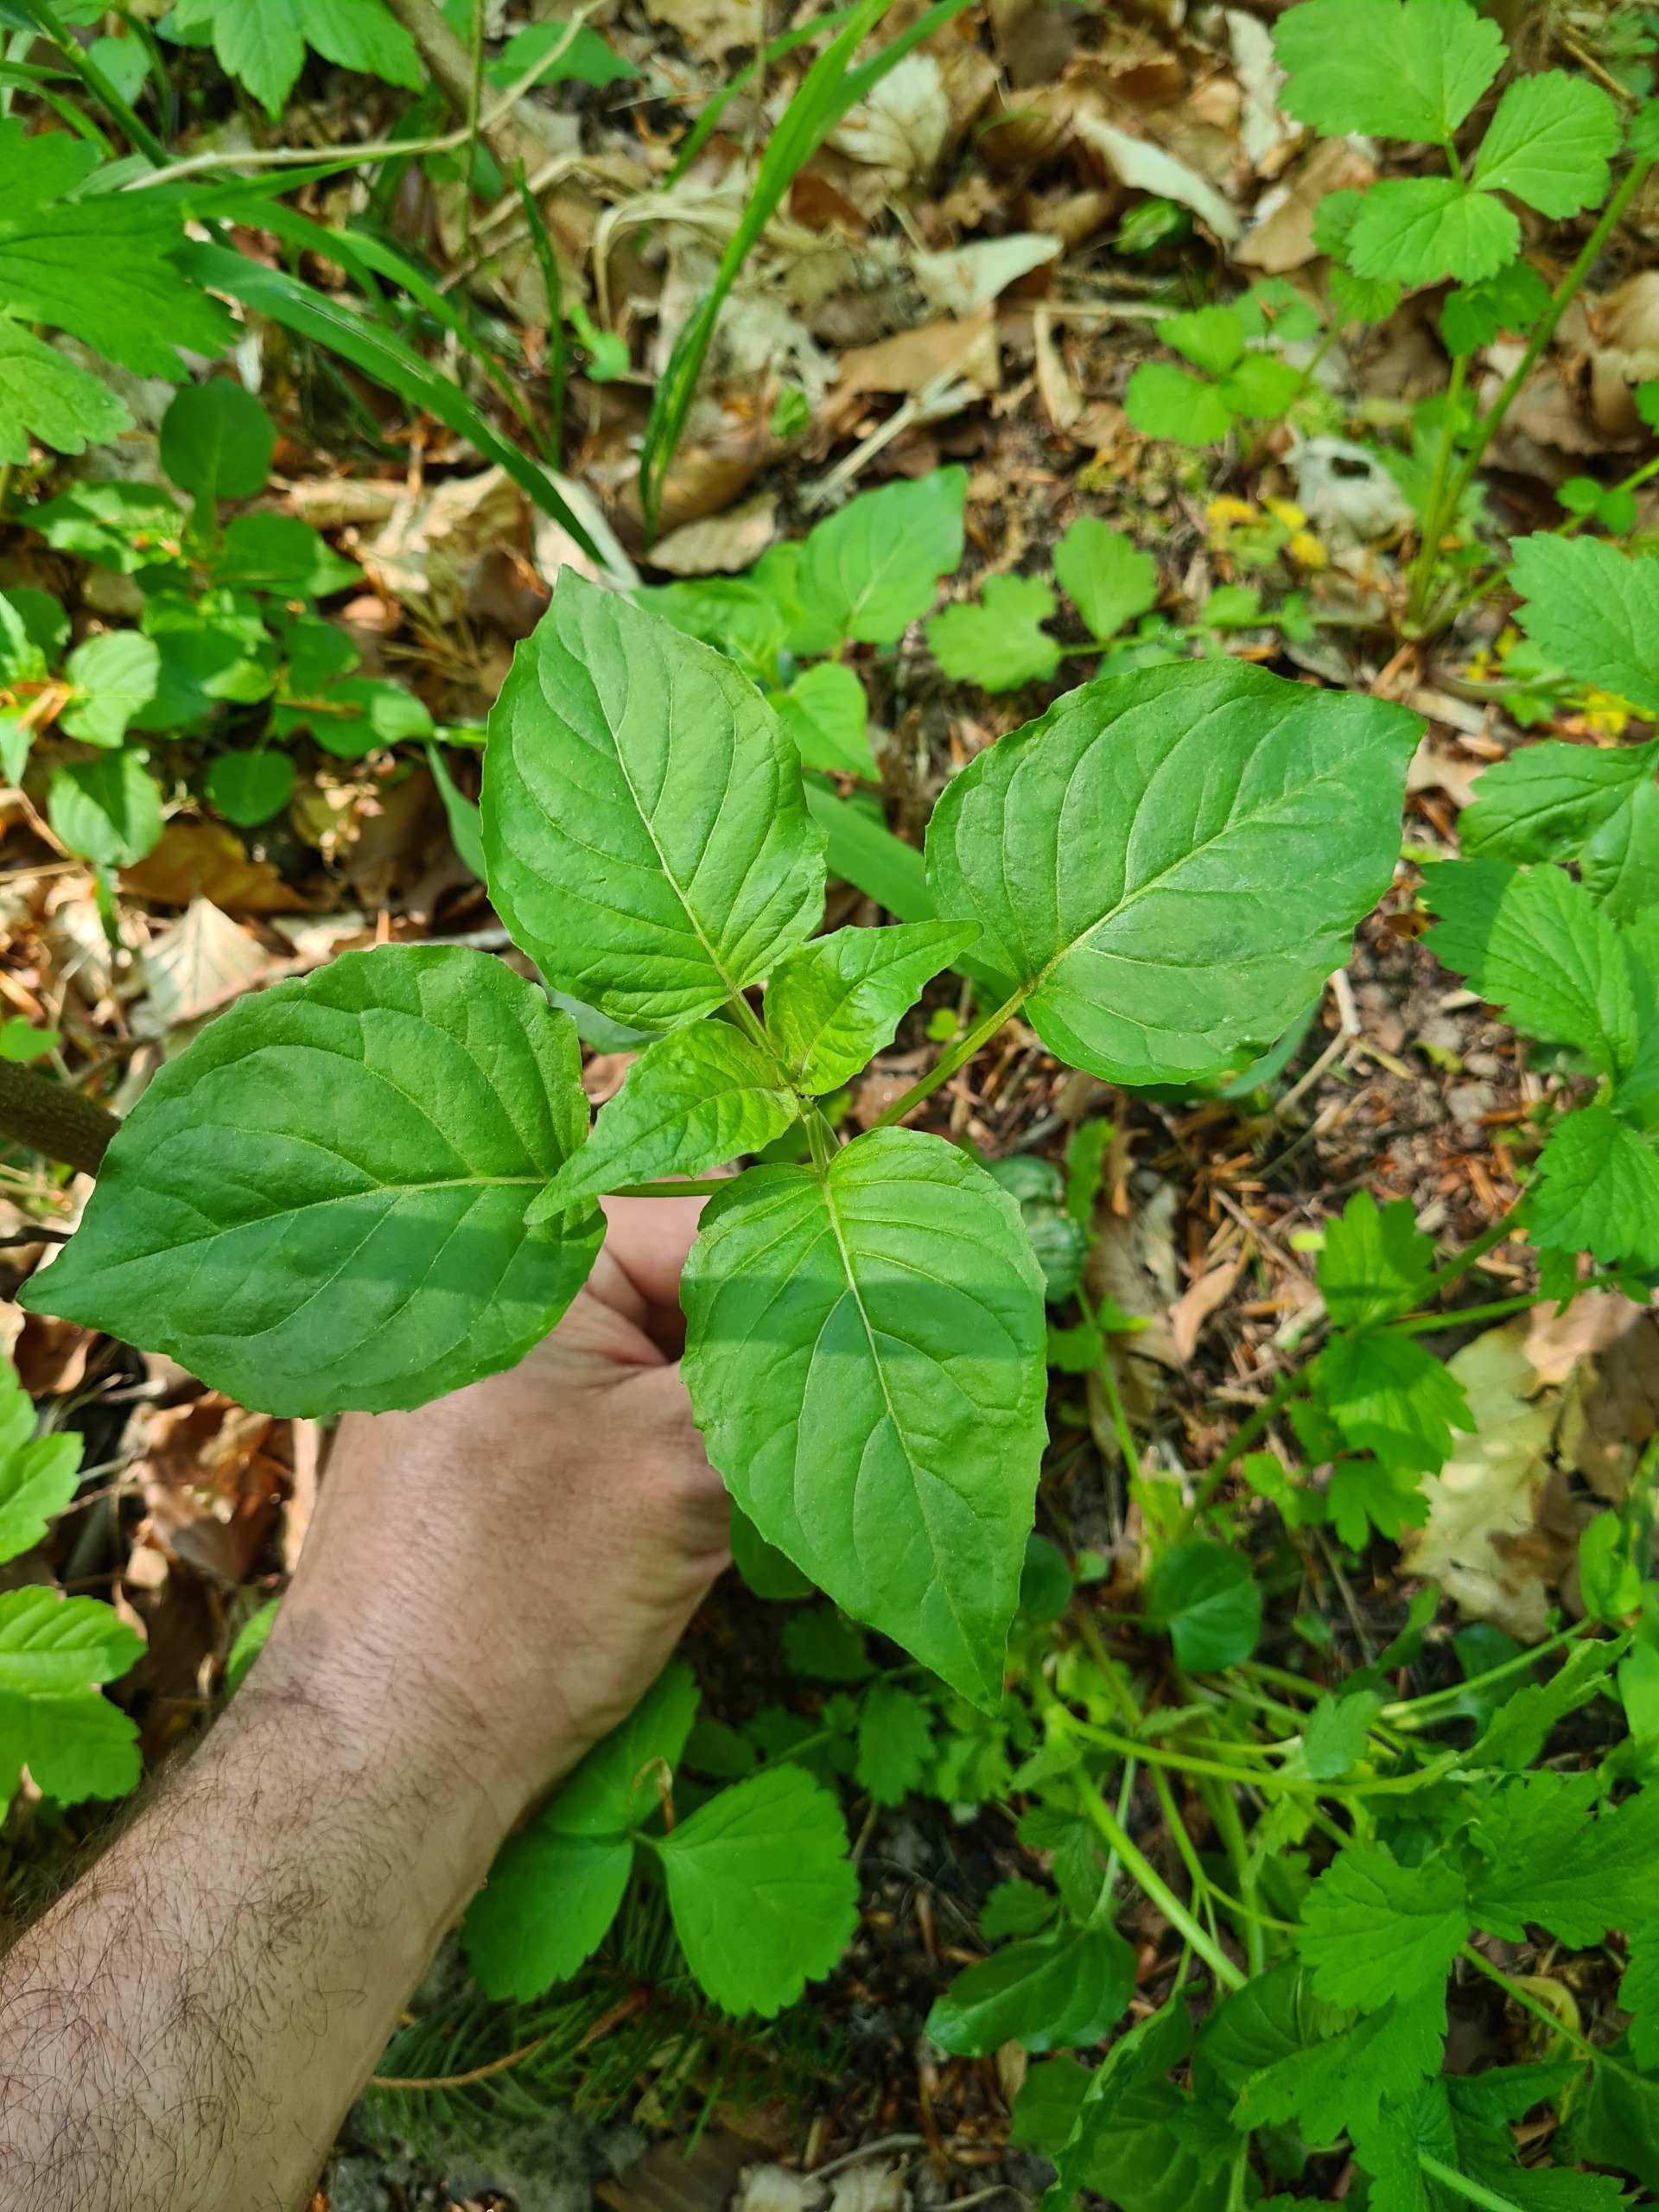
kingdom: Plantae
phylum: Tracheophyta
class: Magnoliopsida
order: Myrtales
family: Onagraceae
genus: Circaea
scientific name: Circaea lutetiana
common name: Dunet steffensurt
